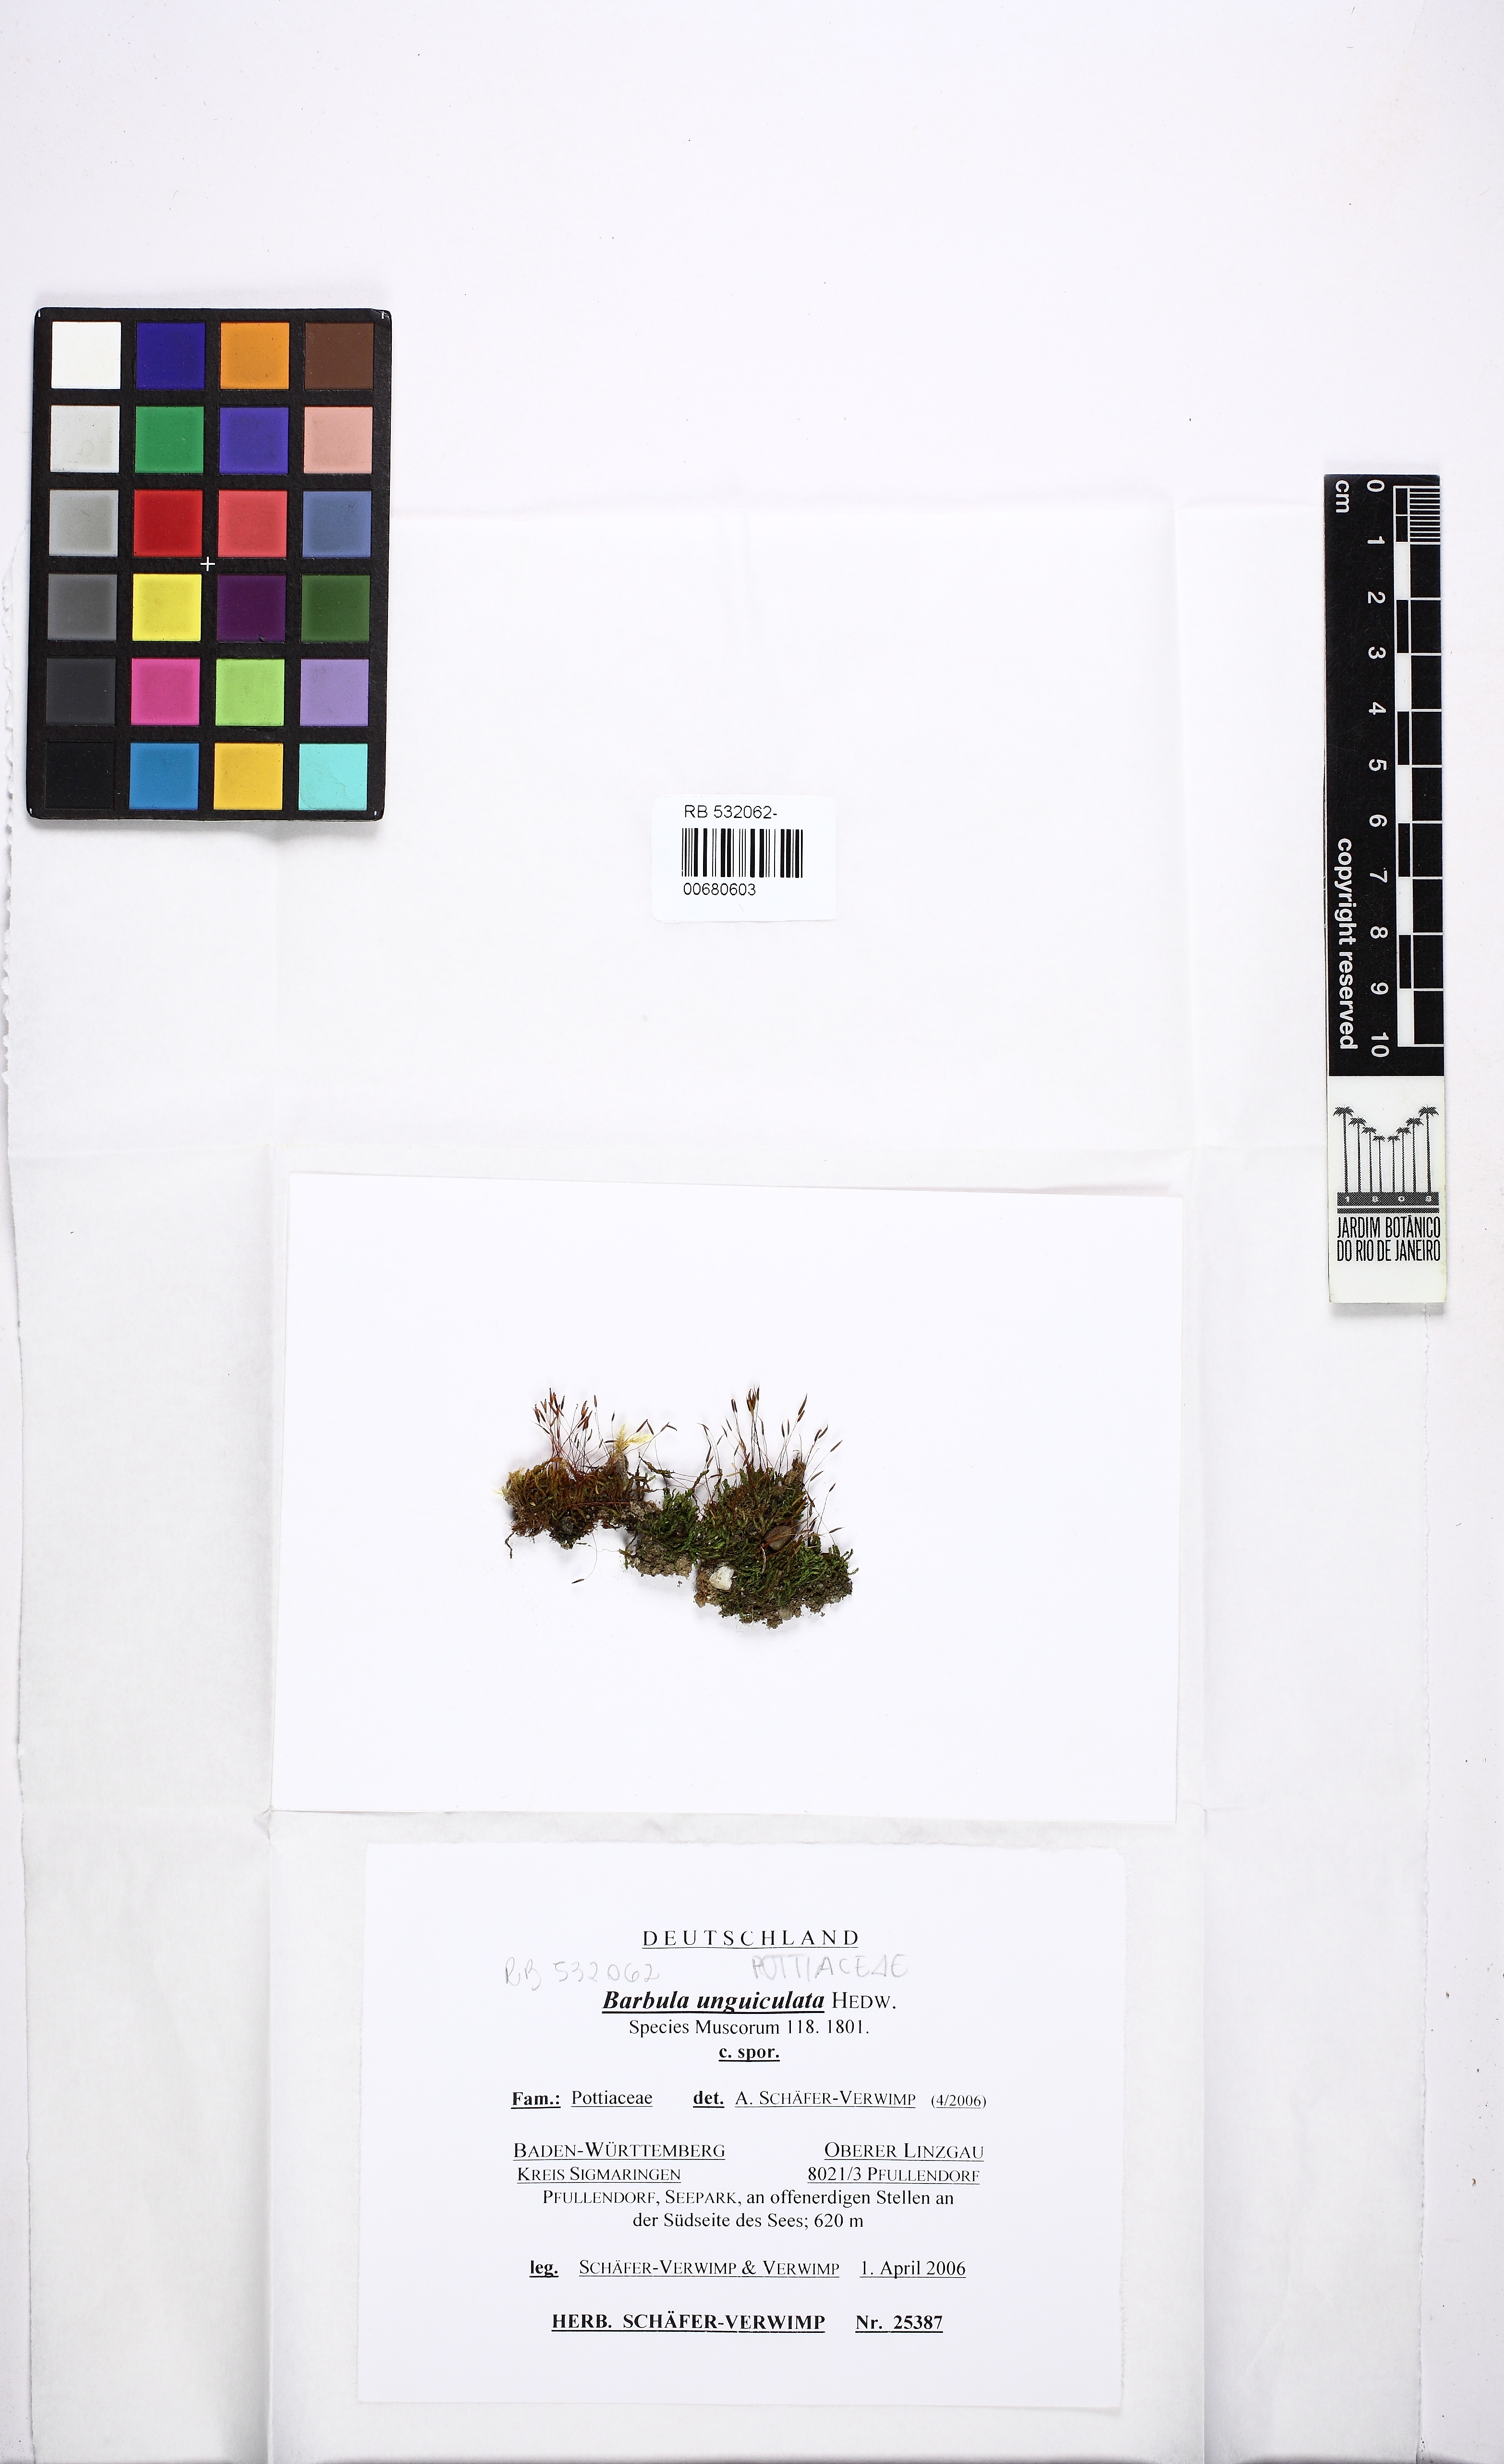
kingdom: Plantae
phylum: Bryophyta
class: Bryopsida
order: Pottiales
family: Pottiaceae
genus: Barbula
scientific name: Barbula unguiculata
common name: Prickly beard moss
